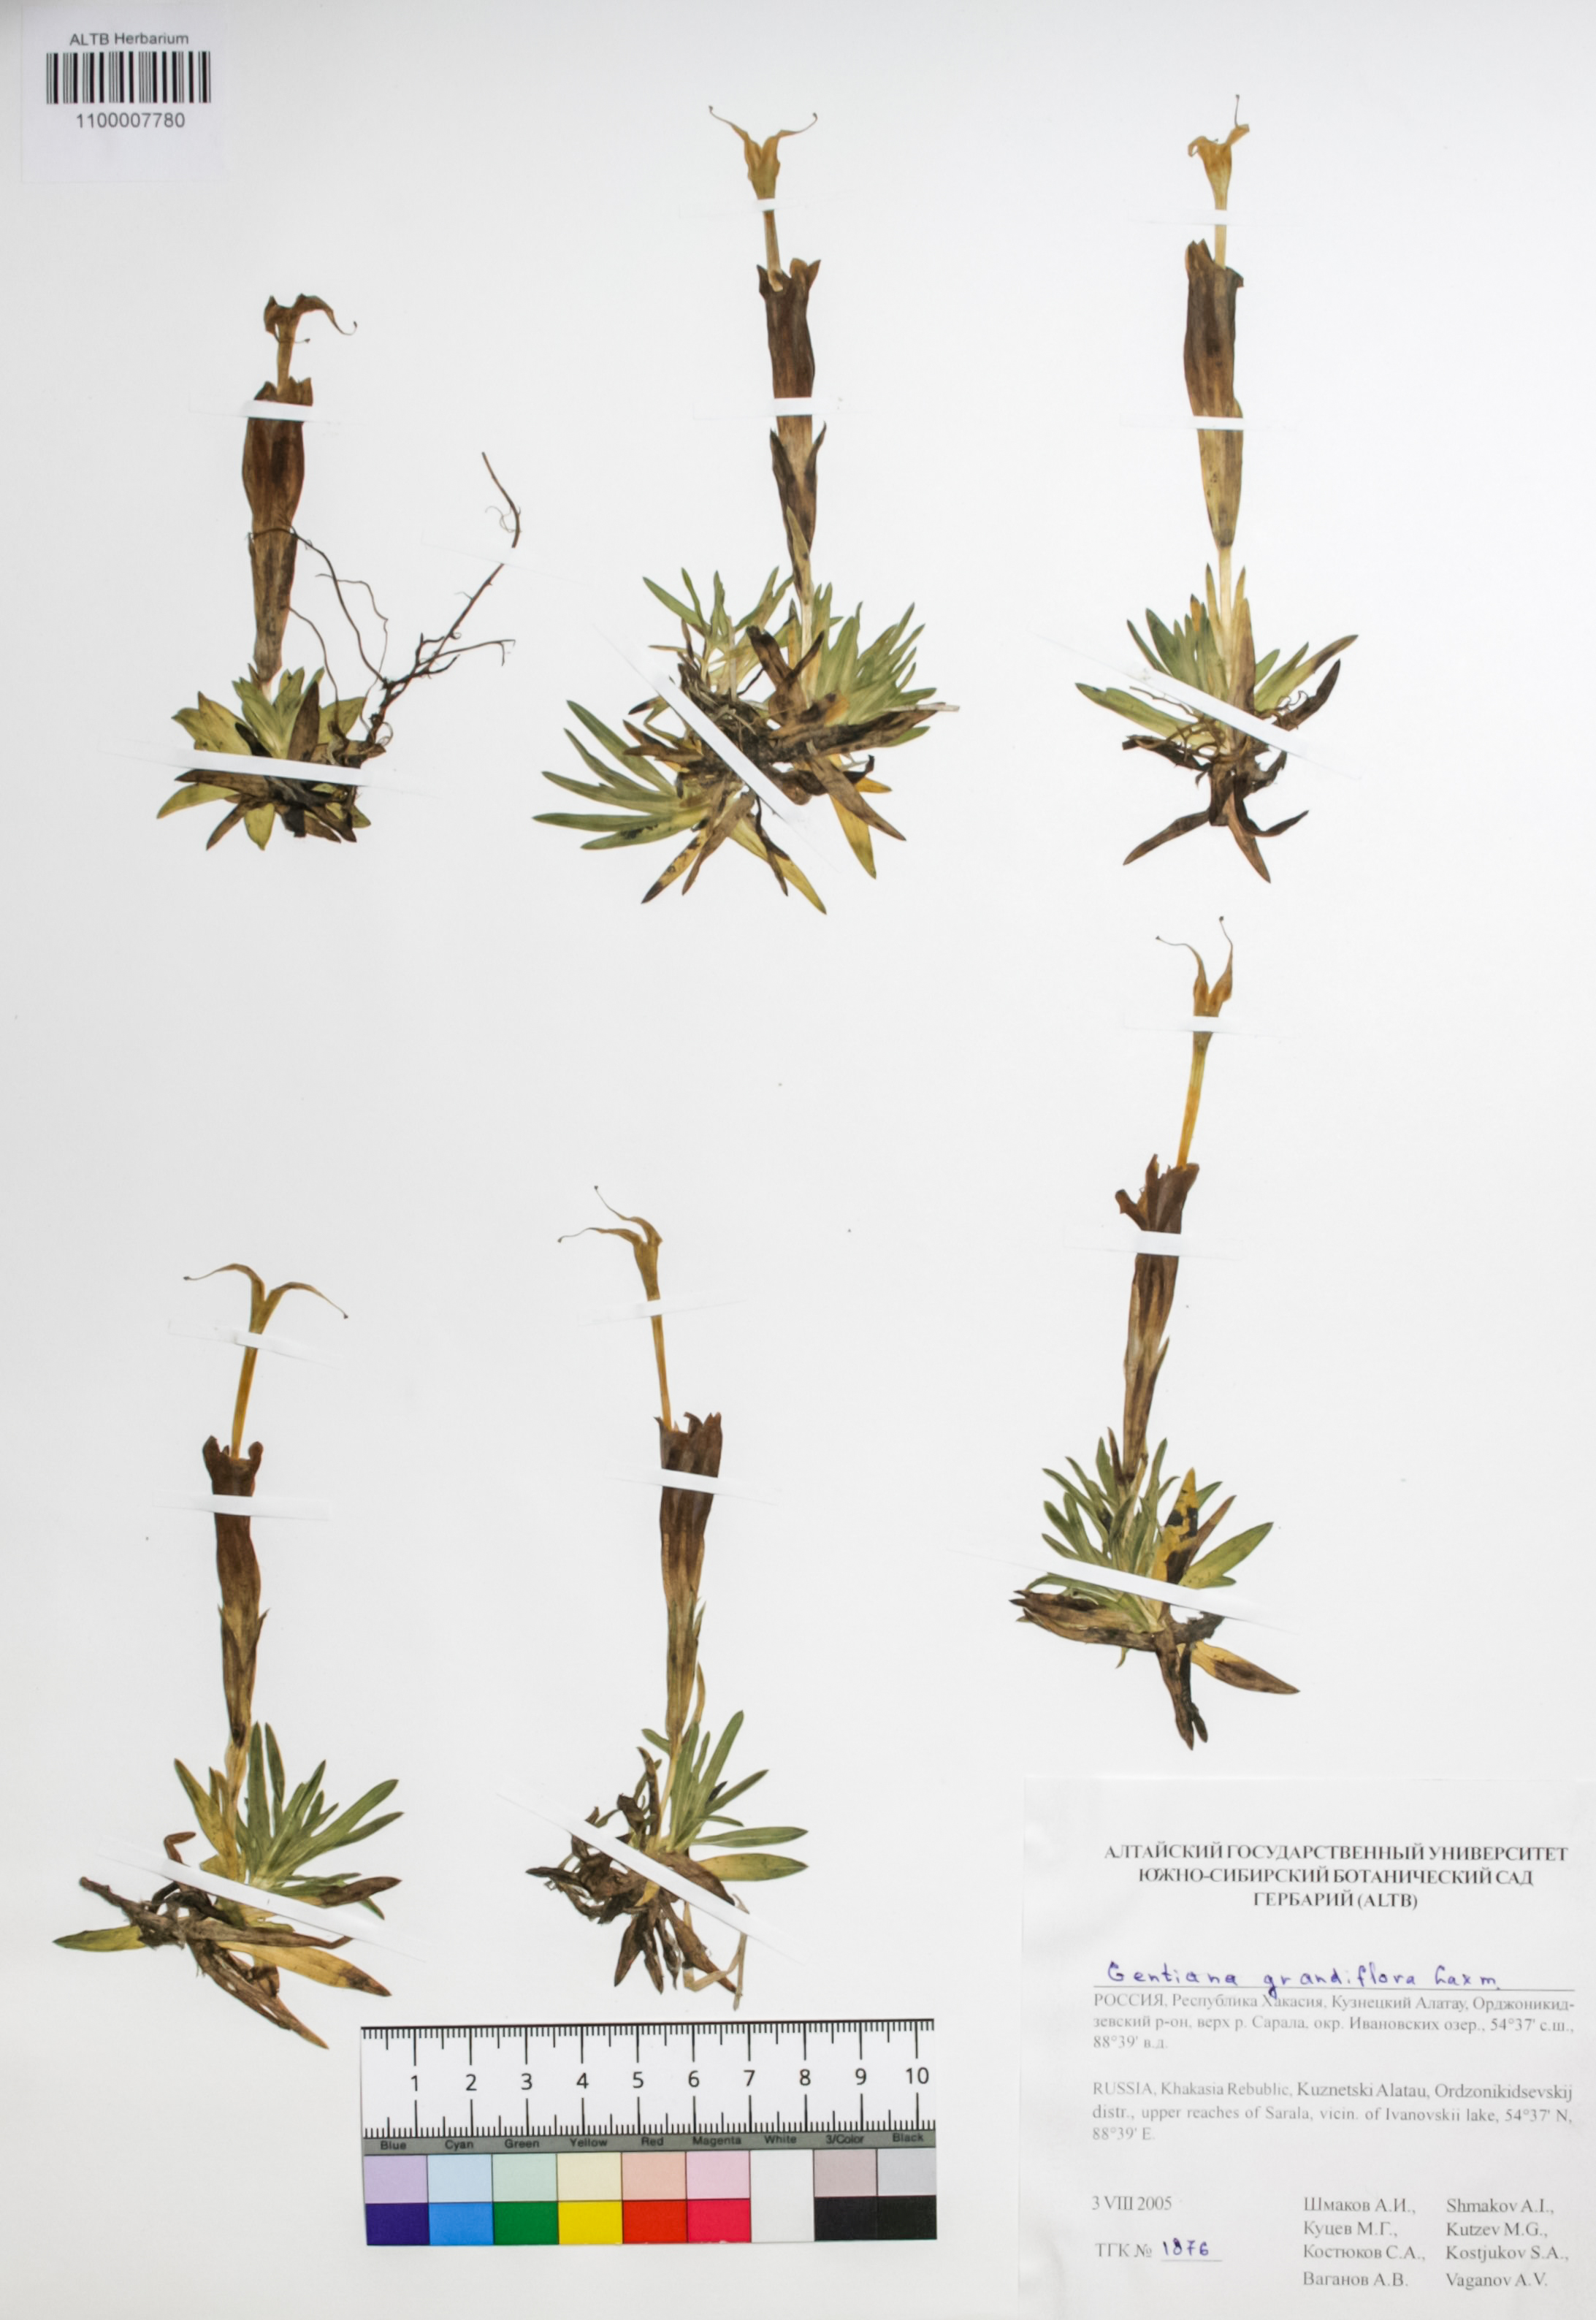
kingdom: Plantae
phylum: Tracheophyta
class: Magnoliopsida
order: Gentianales
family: Gentianaceae
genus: Gentiana
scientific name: Gentiana grandiflora
